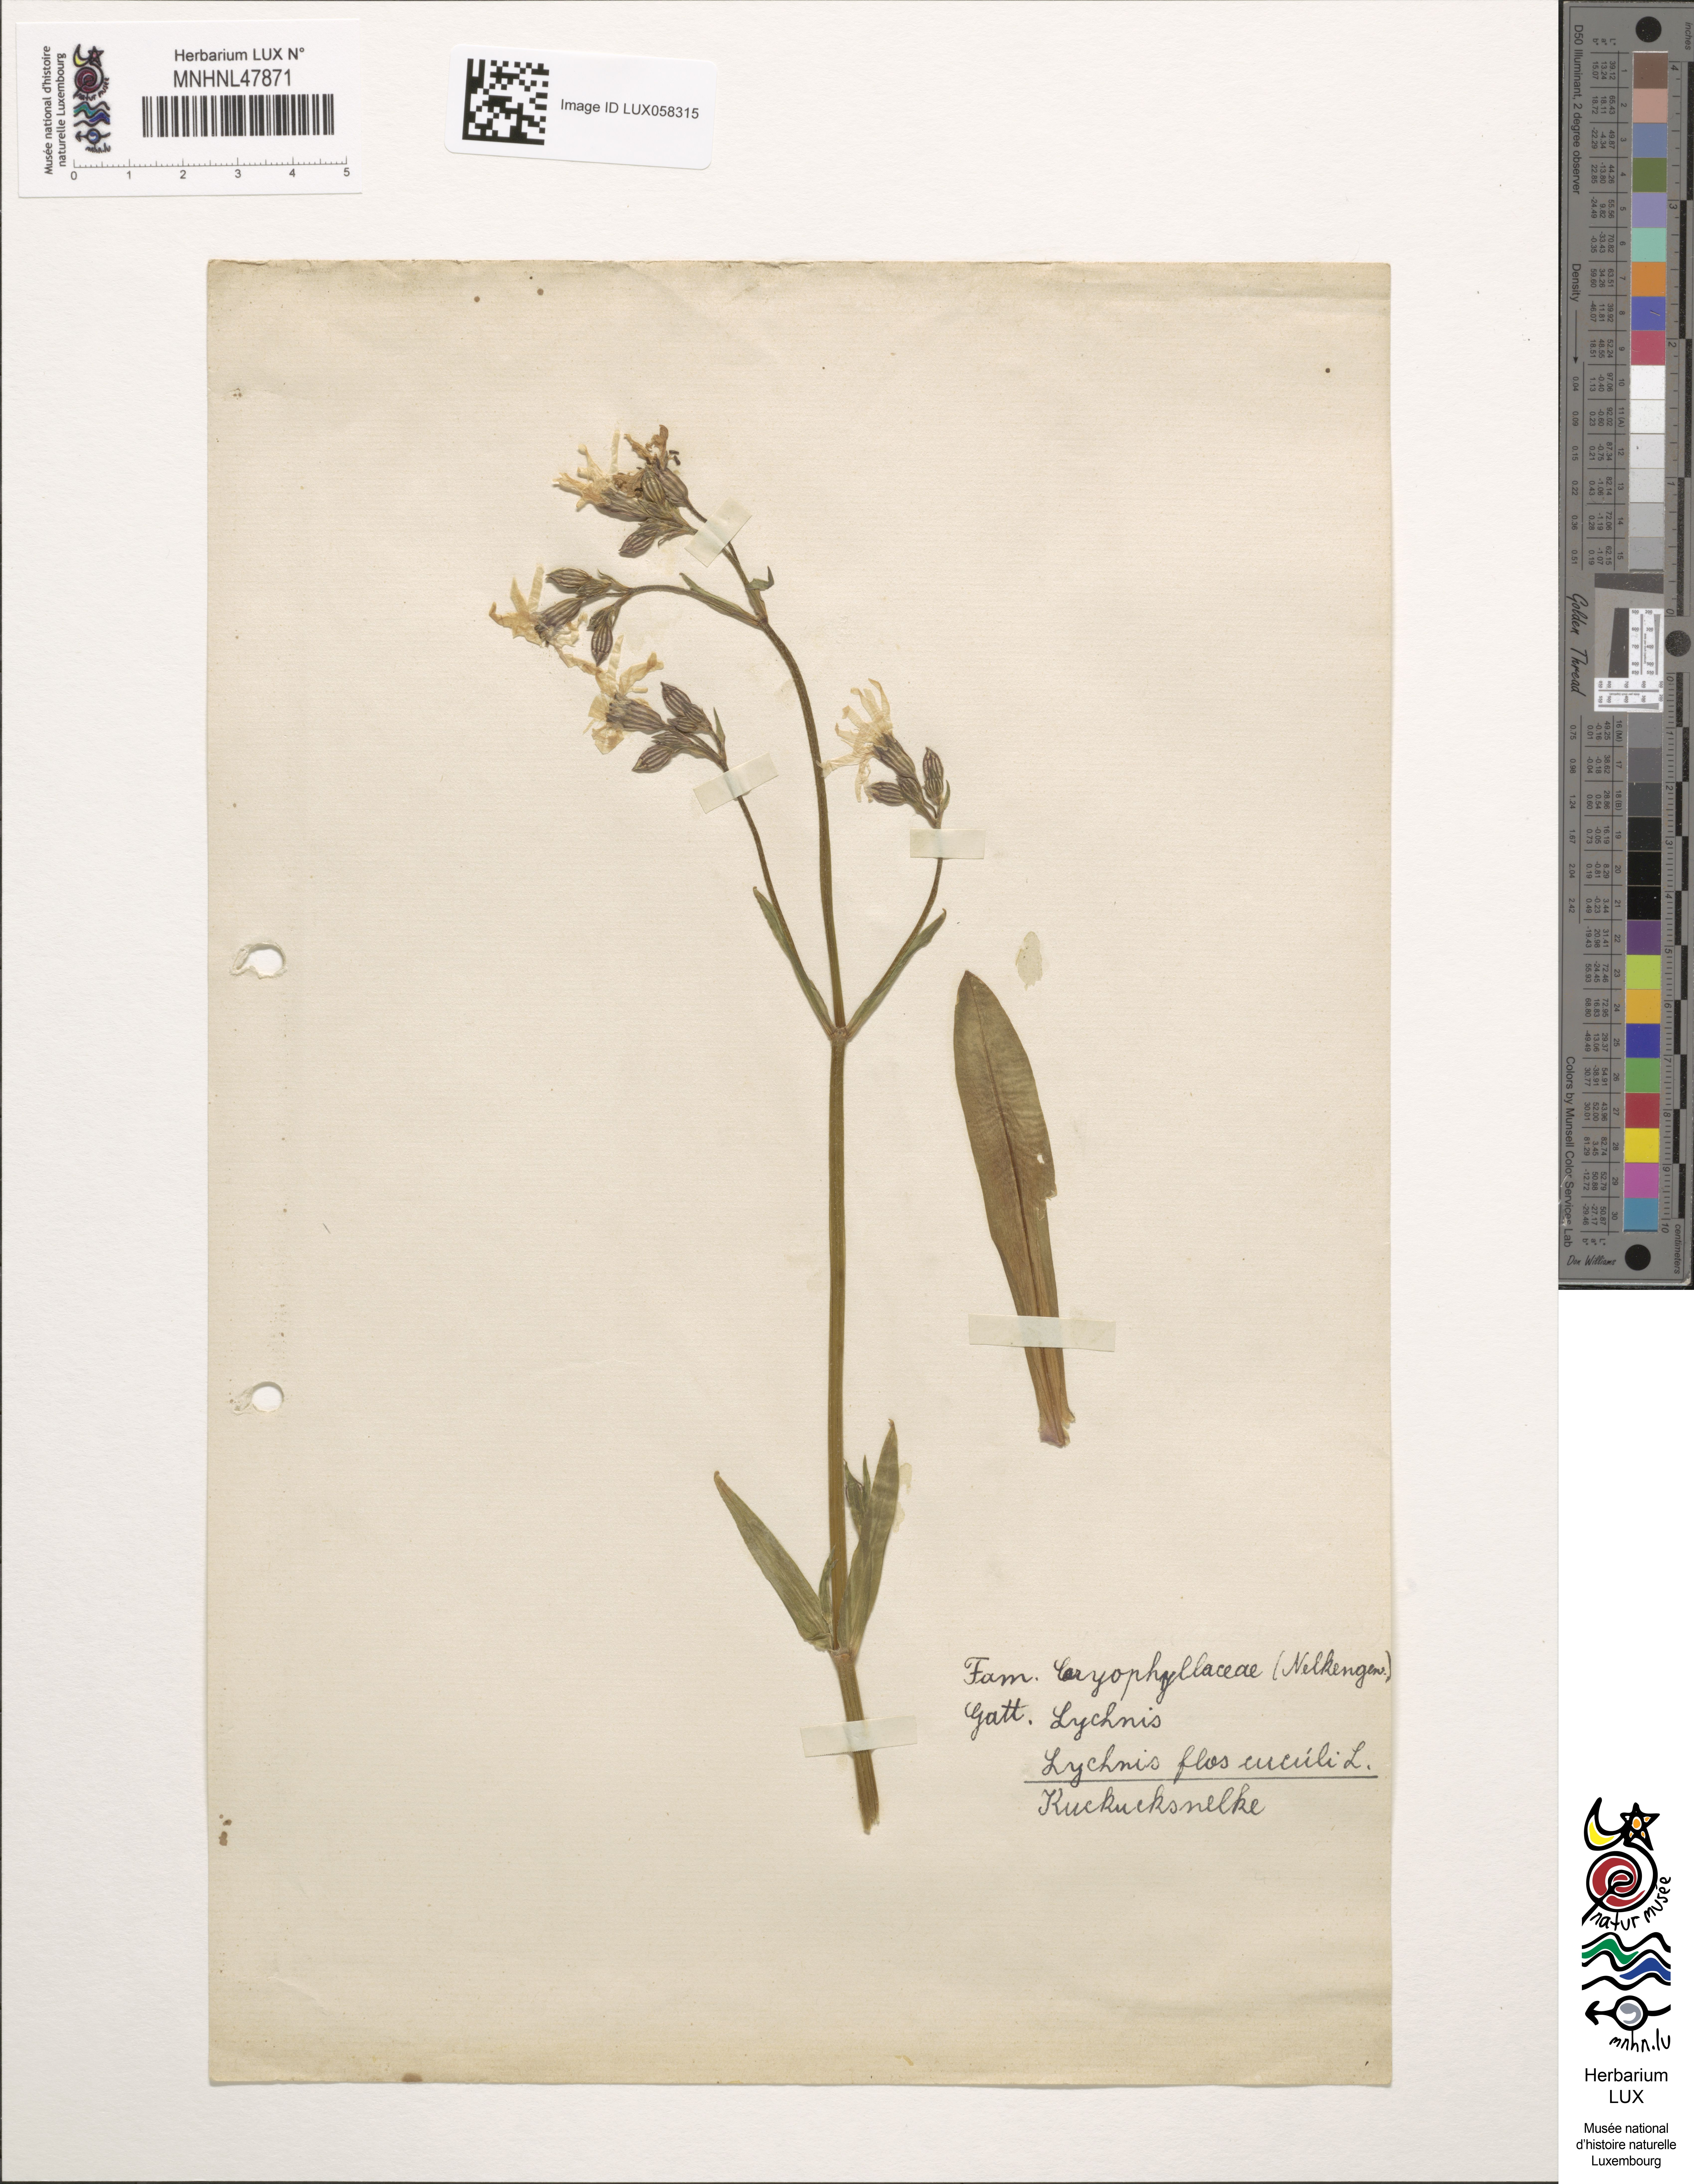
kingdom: Plantae
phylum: Tracheophyta
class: Magnoliopsida
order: Caryophyllales
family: Caryophyllaceae
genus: Silene
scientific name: Silene flos-cuculi
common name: Ragged-robin
